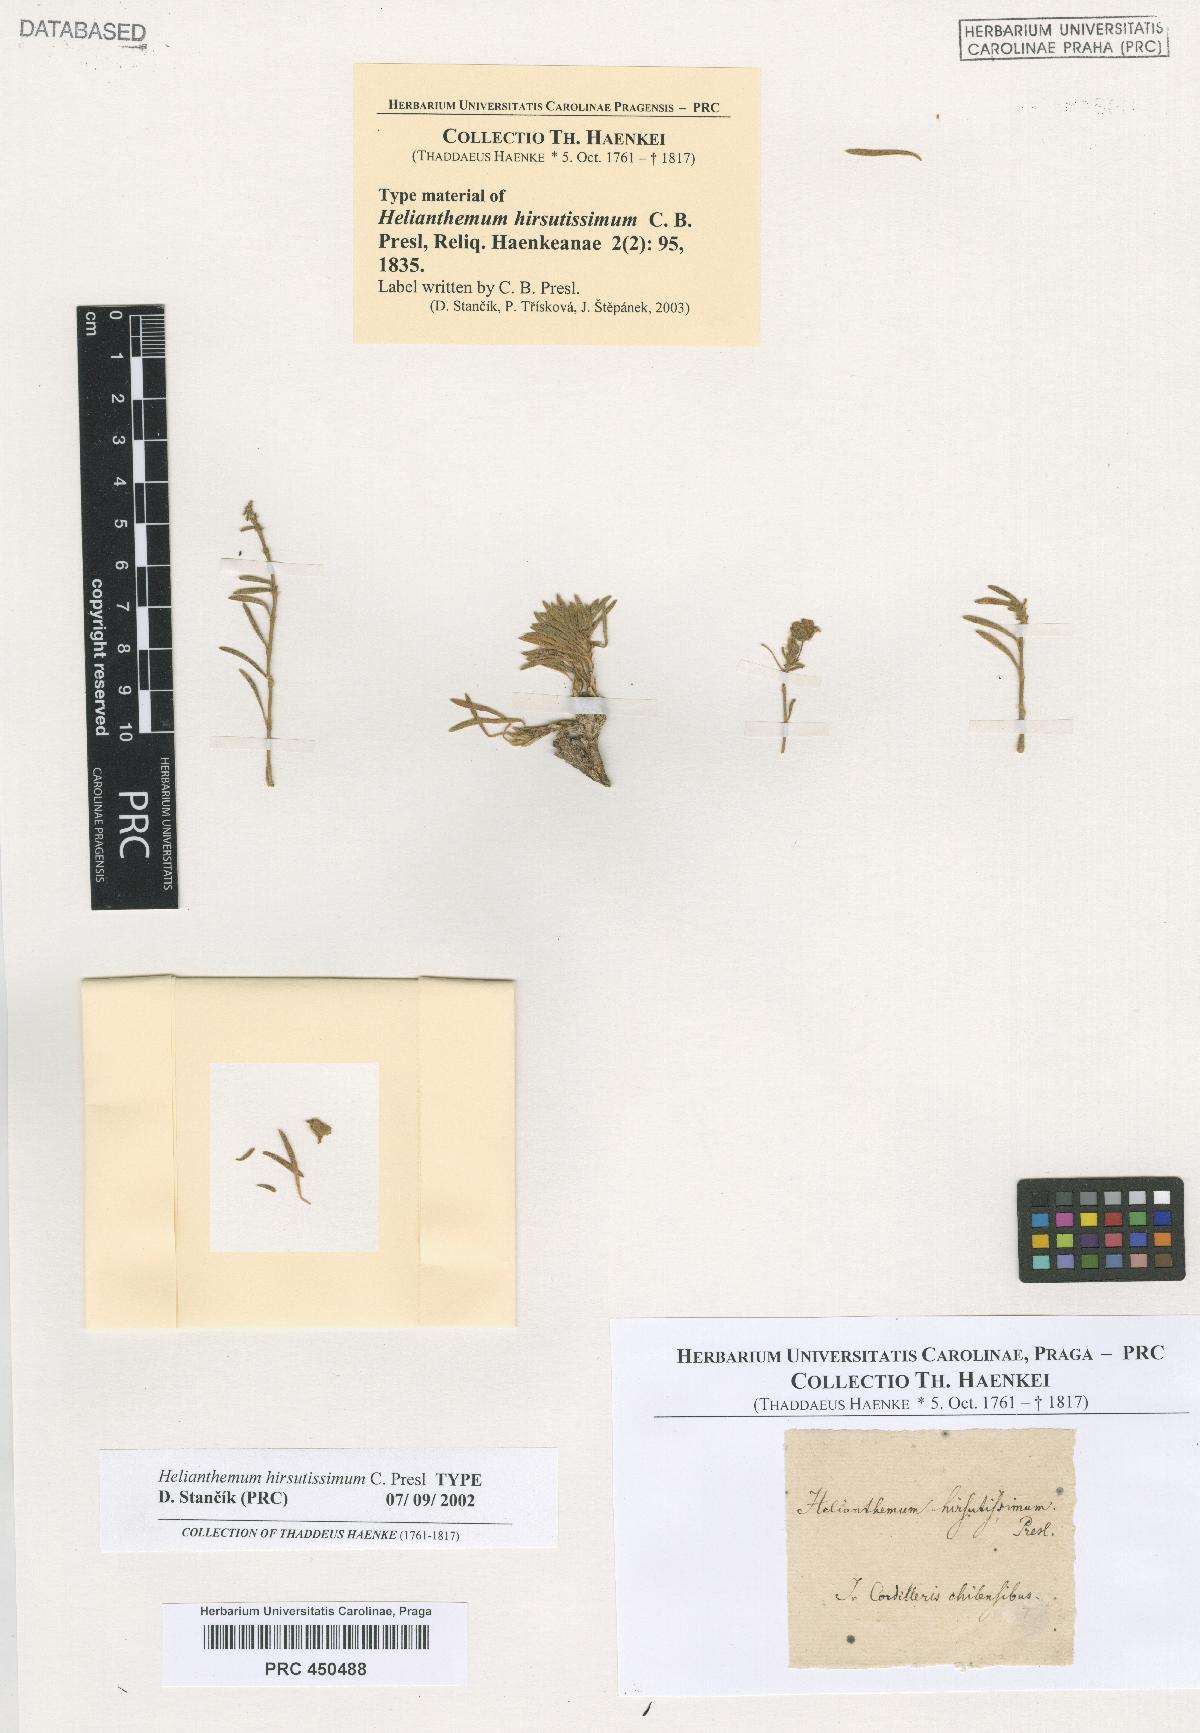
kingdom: Plantae
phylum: Tracheophyta
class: Magnoliopsida
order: Malvales
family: Cistaceae
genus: Helianthemum
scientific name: Helianthemum hirsutissimum
